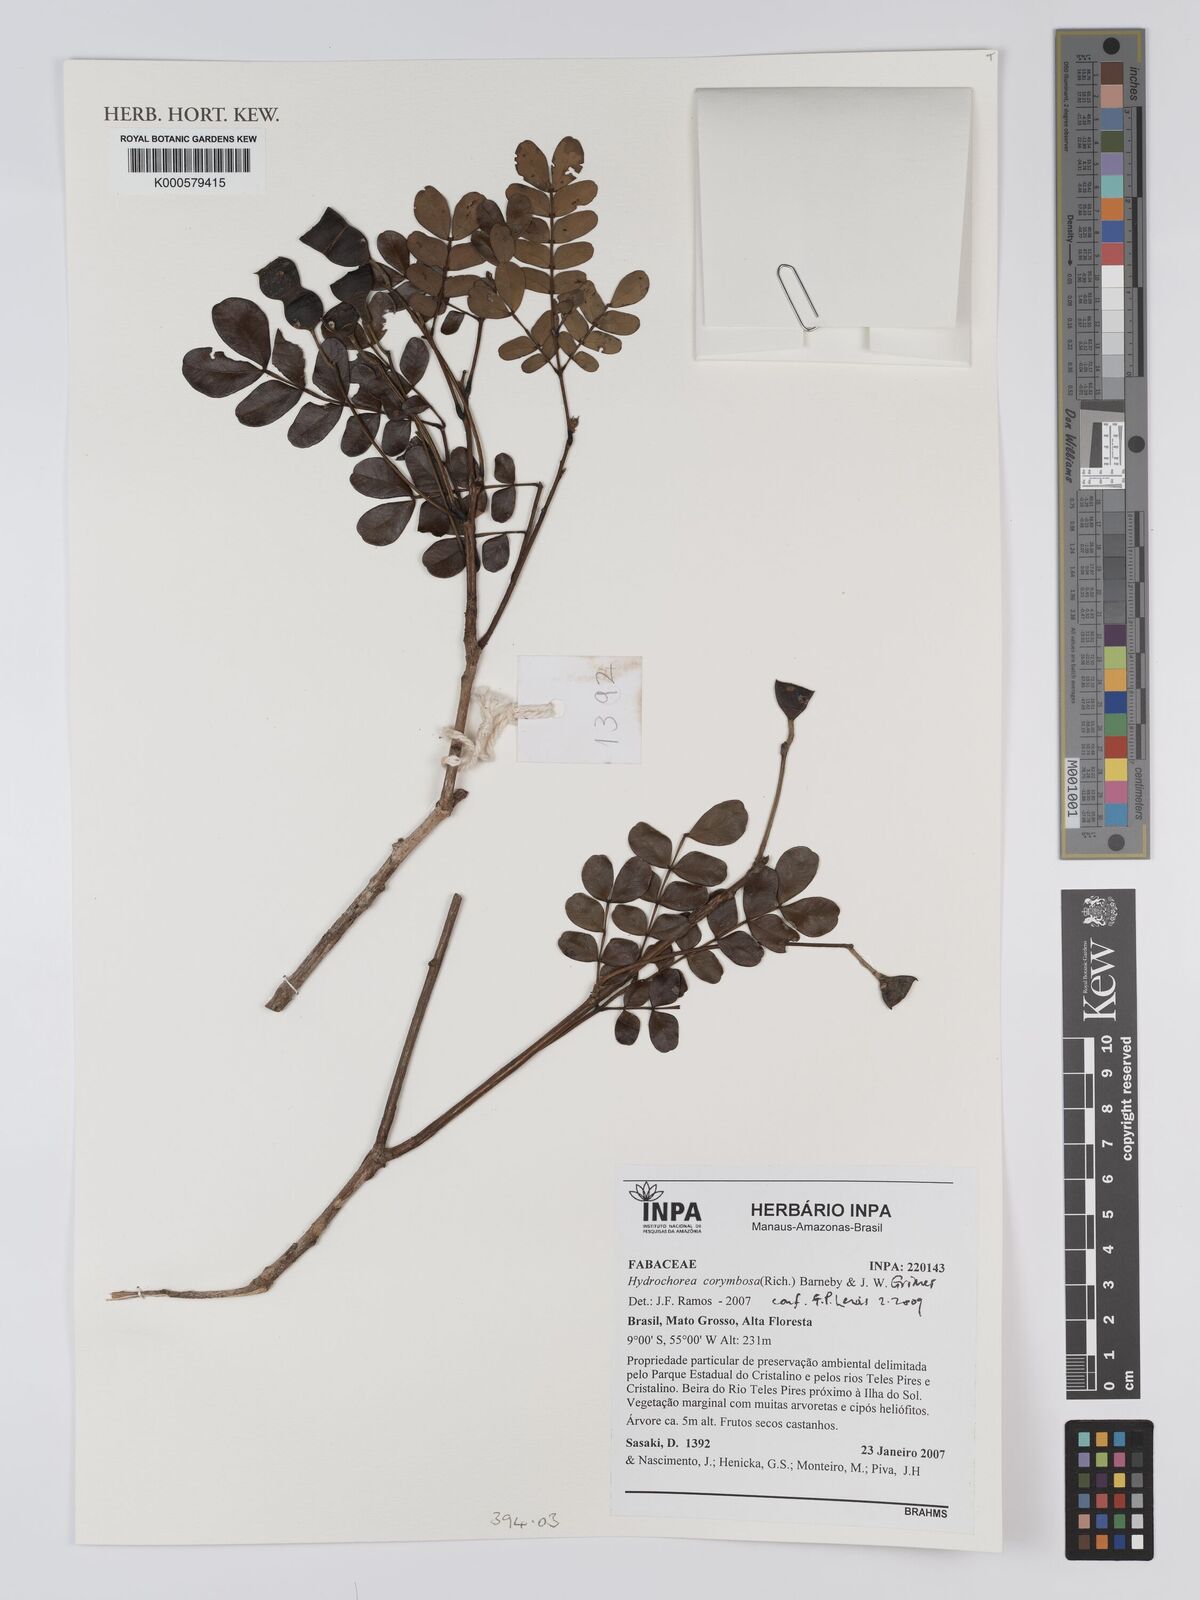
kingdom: Plantae
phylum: Tracheophyta
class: Magnoliopsida
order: Fabales
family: Fabaceae
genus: Hydrochorea
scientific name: Hydrochorea corymbosa
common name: Swamp manariballi
